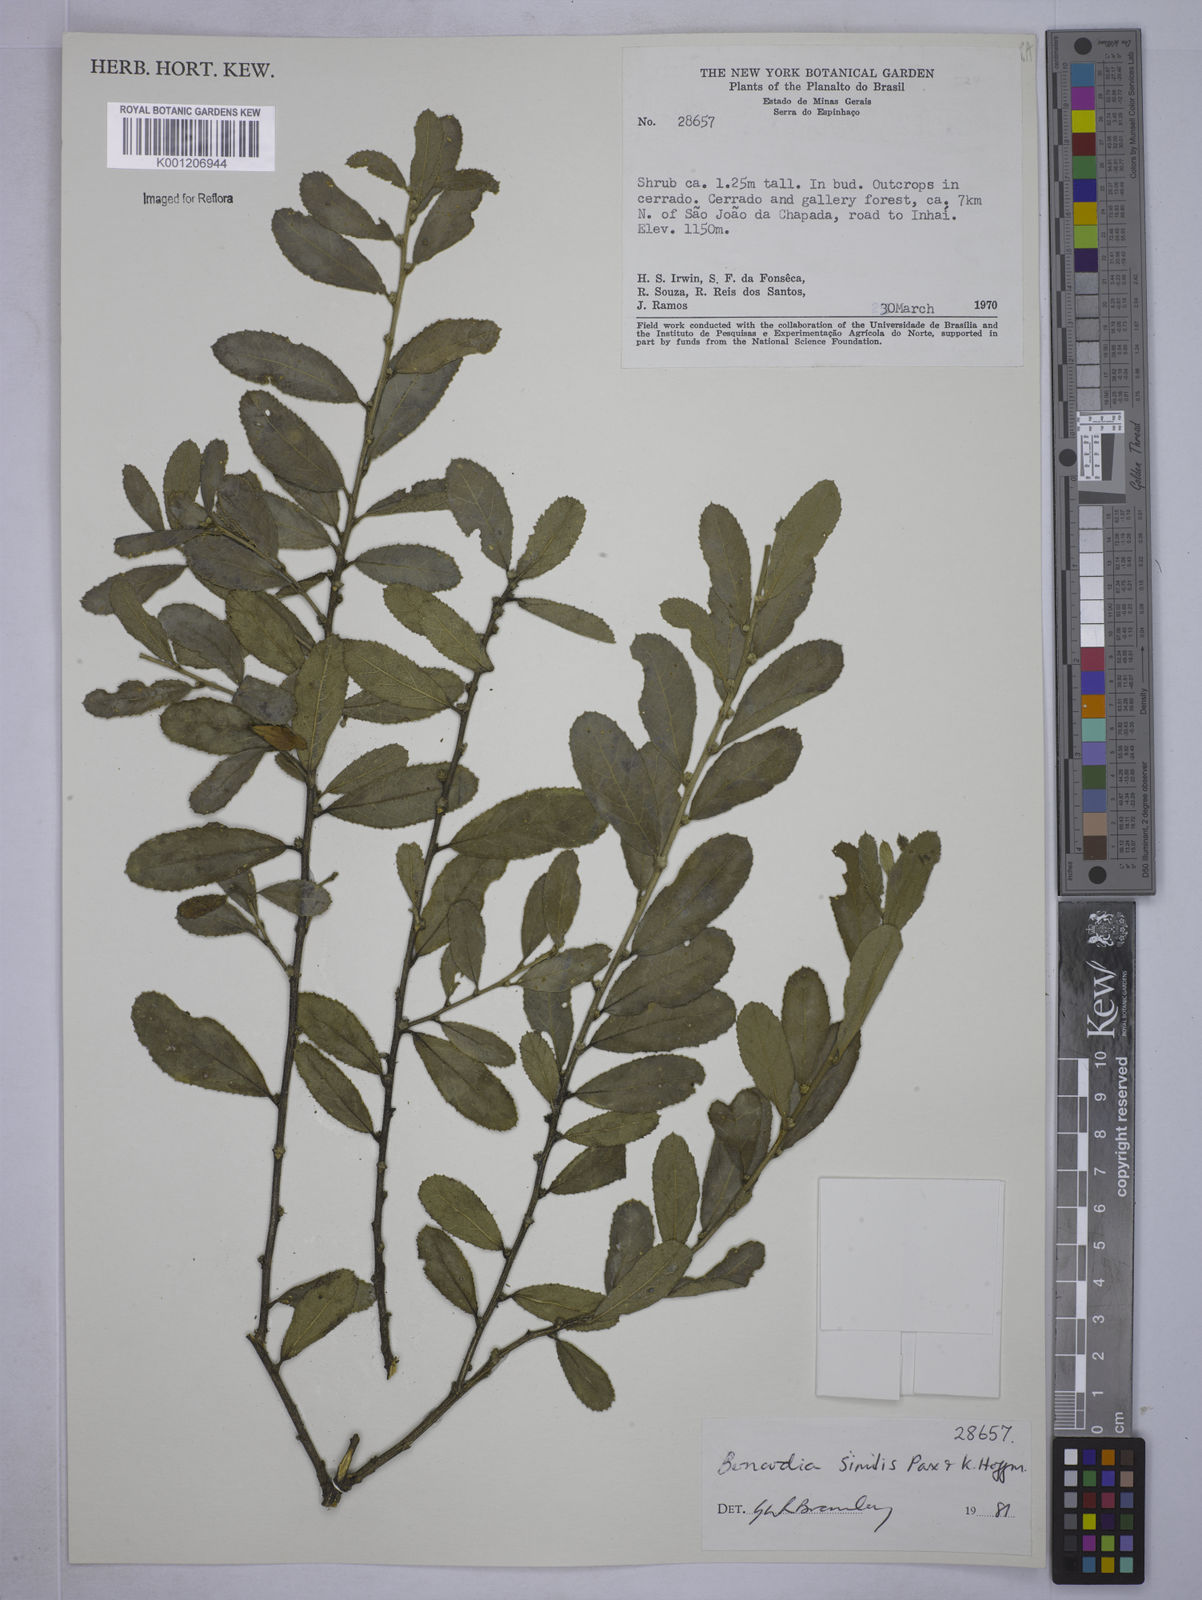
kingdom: Plantae
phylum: Tracheophyta
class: Magnoliopsida
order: Malpighiales
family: Euphorbiaceae
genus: Bernardia
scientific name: Bernardia similis
